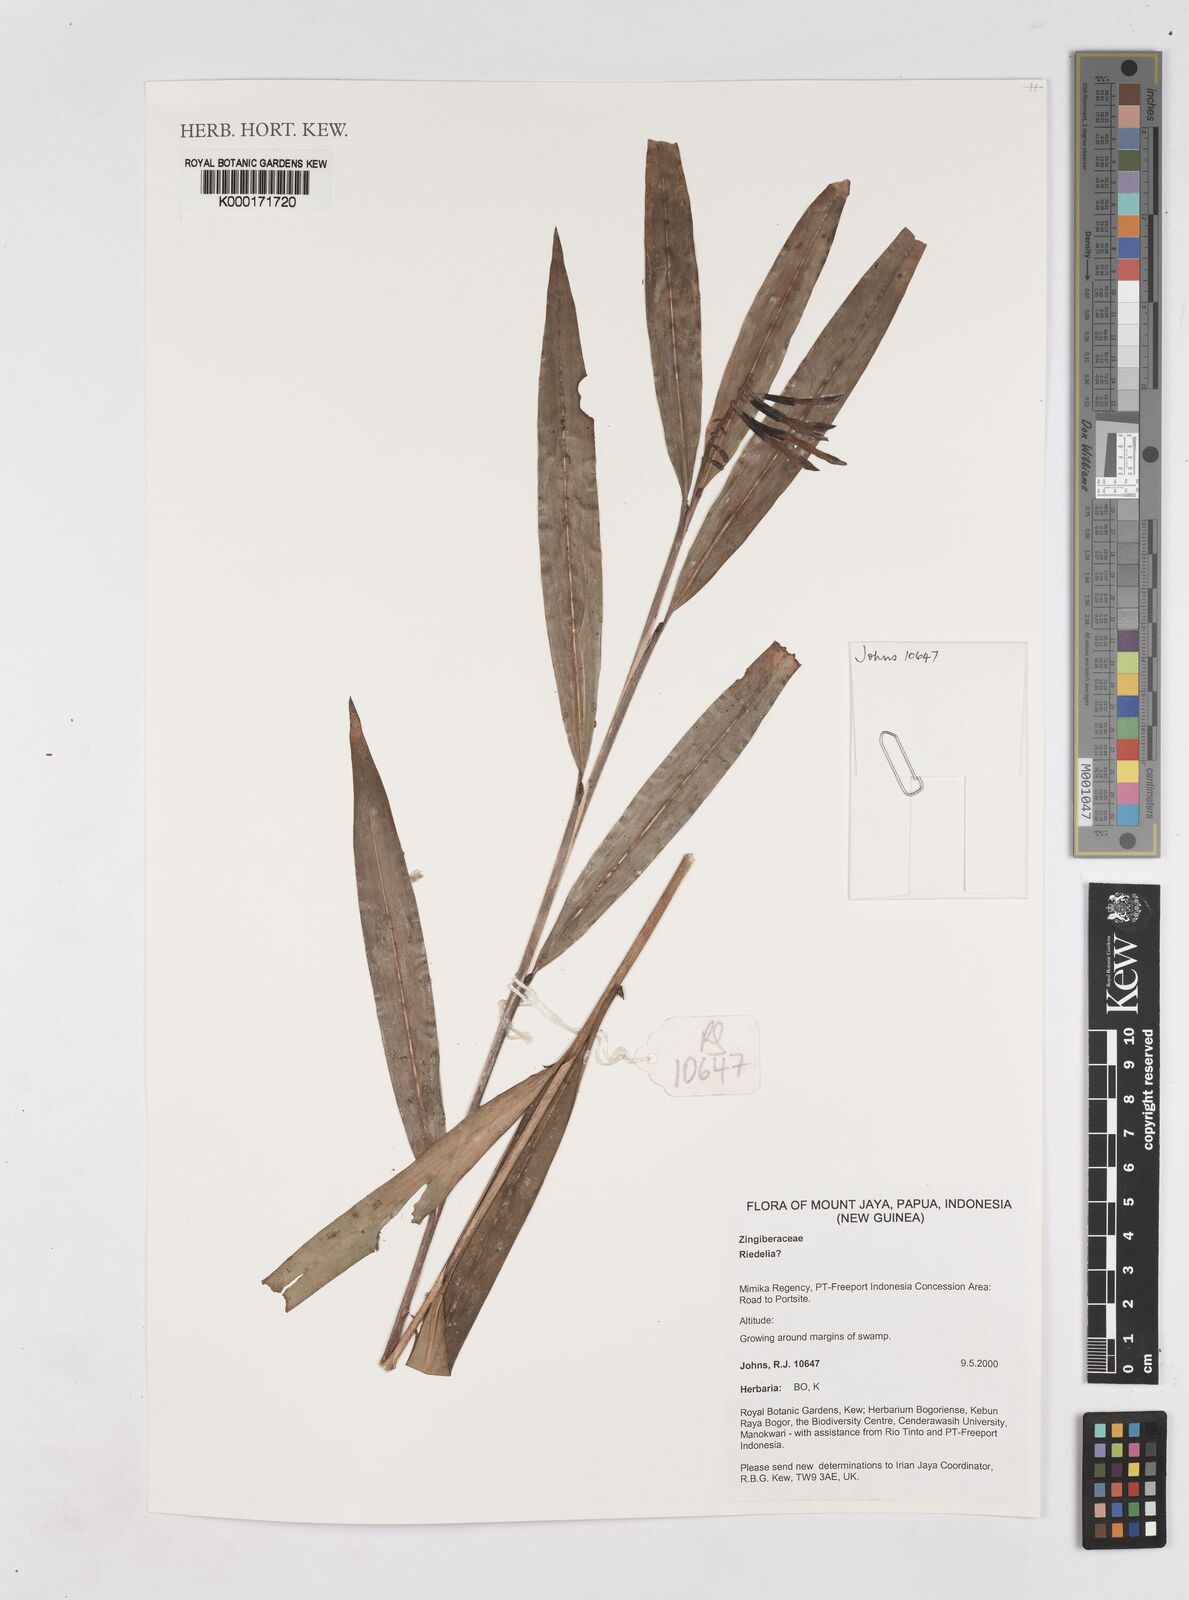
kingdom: Plantae
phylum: Tracheophyta
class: Liliopsida
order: Zingiberales
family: Zingiberaceae
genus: Riedelia
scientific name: Riedelia
